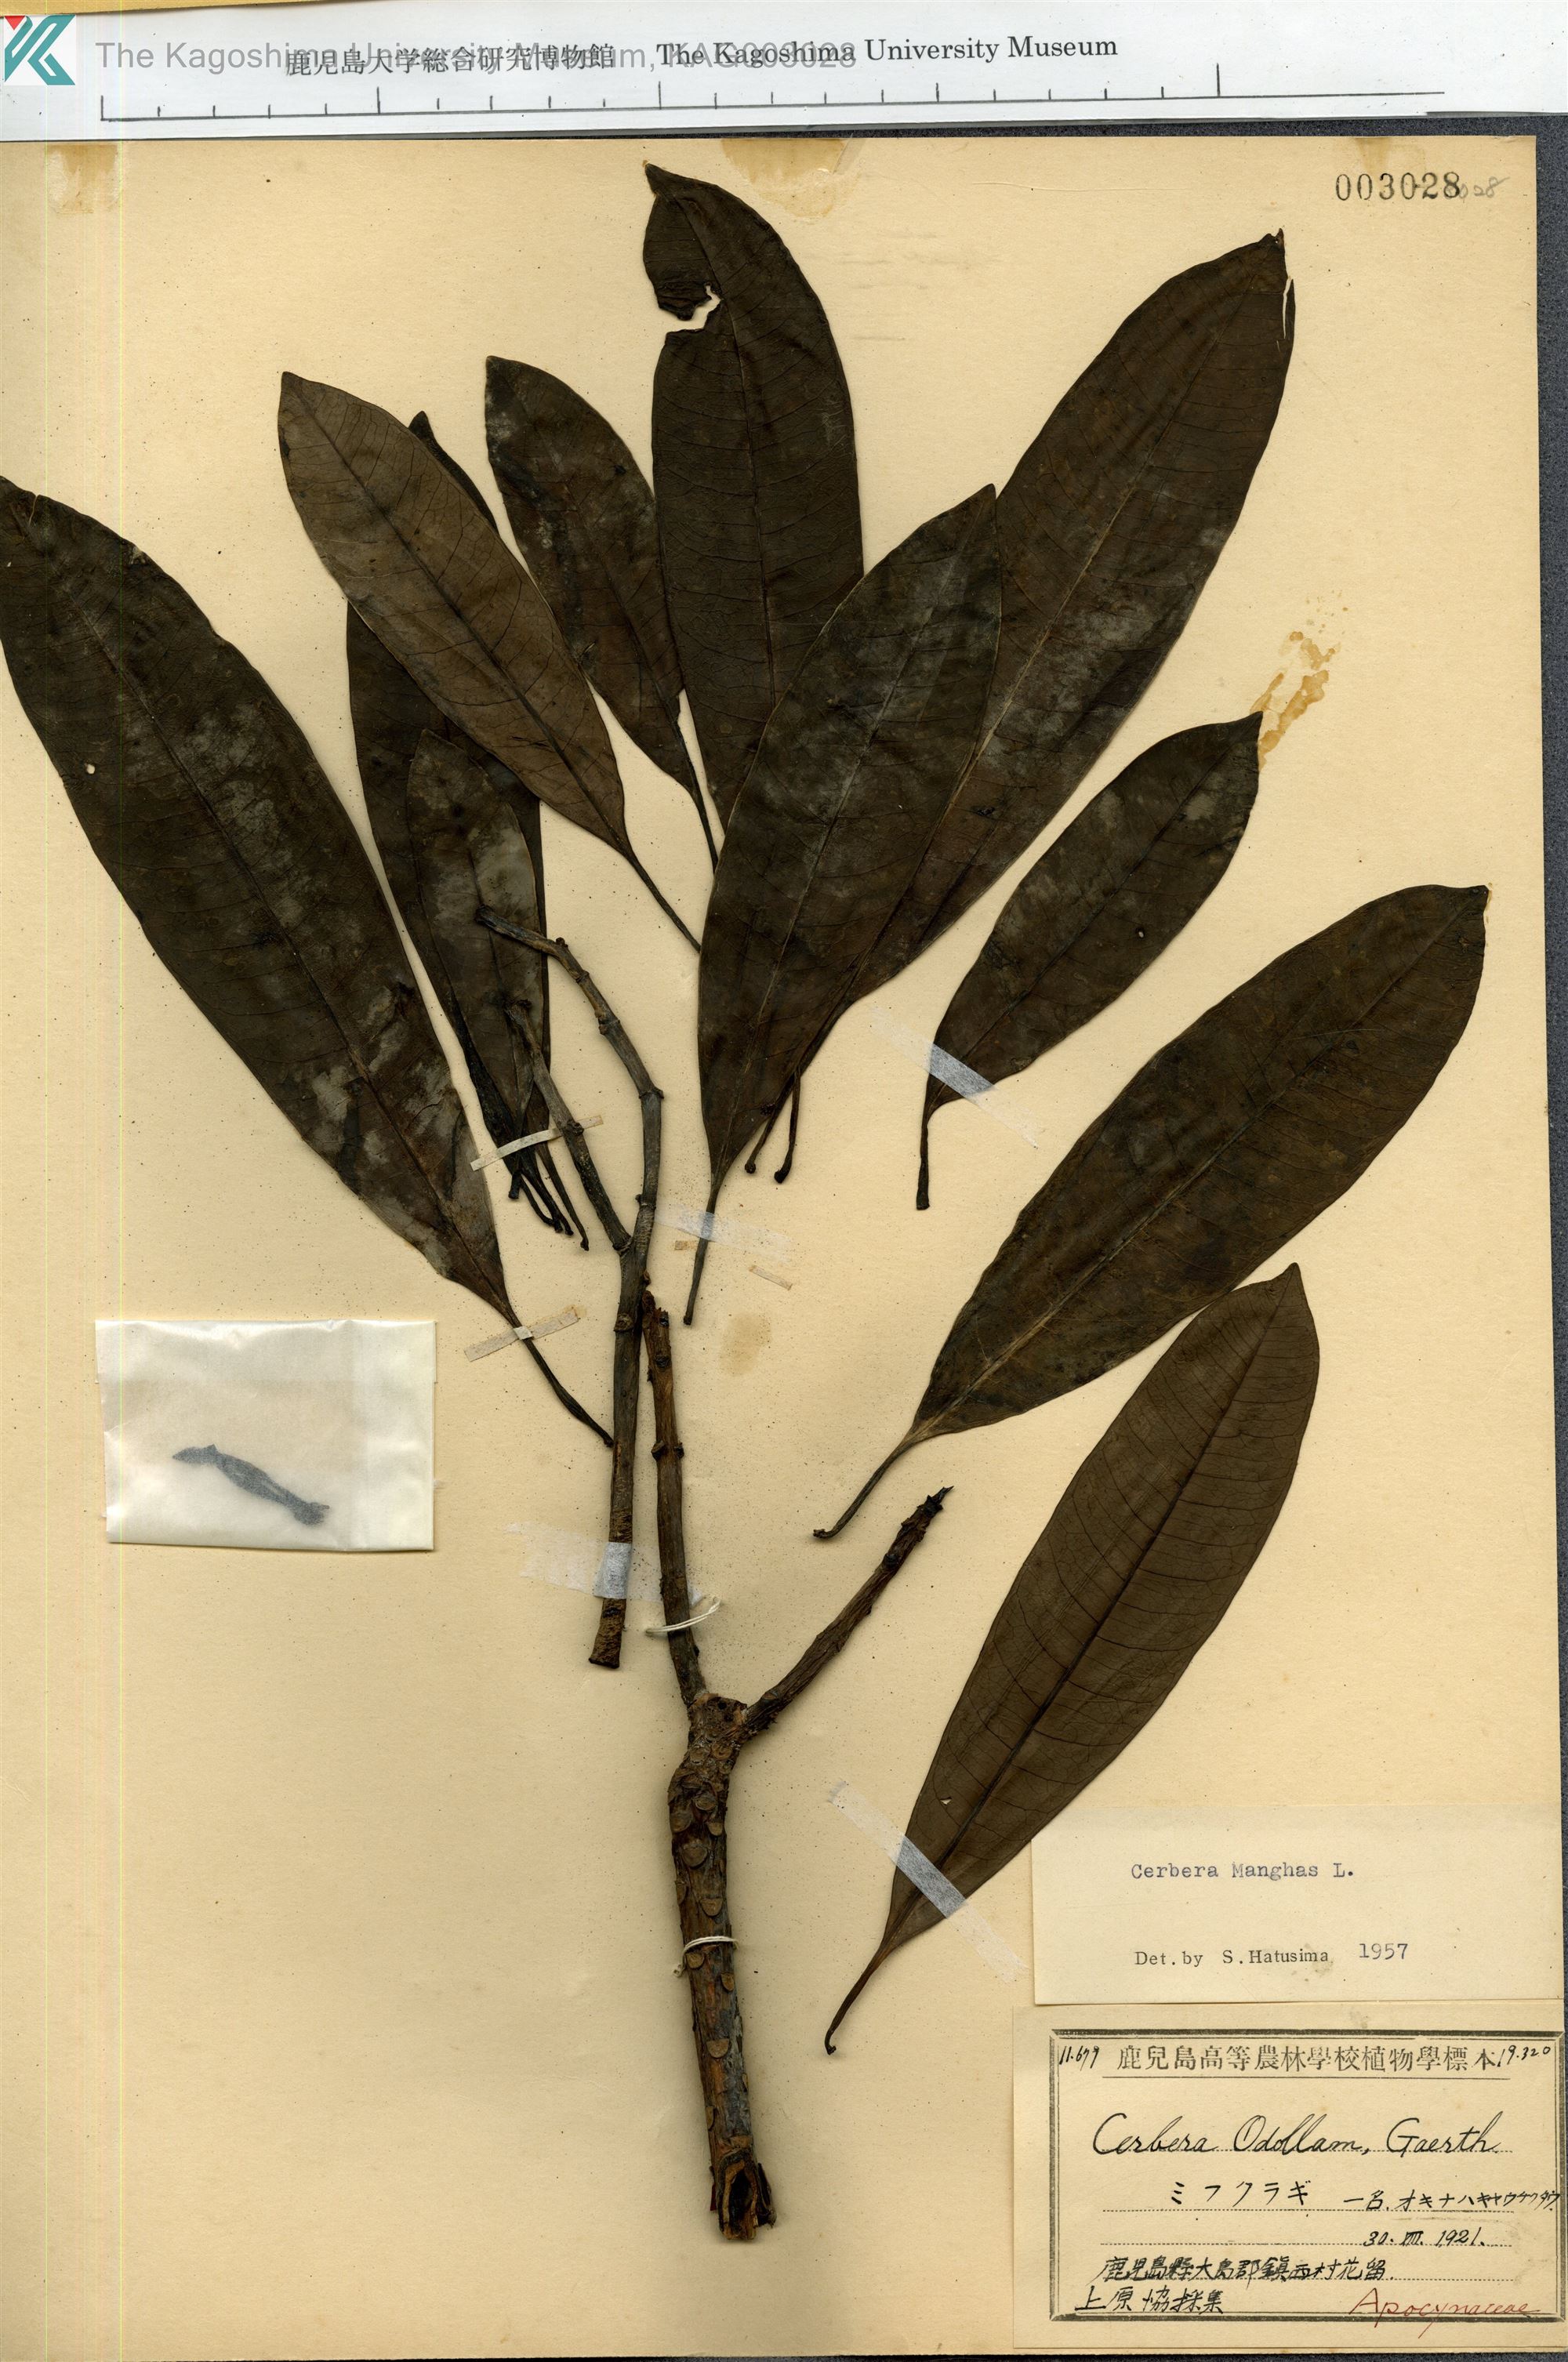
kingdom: Plantae
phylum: Tracheophyta
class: Magnoliopsida
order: Gentianales
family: Apocynaceae
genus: Cerbera
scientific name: Cerbera manghas
